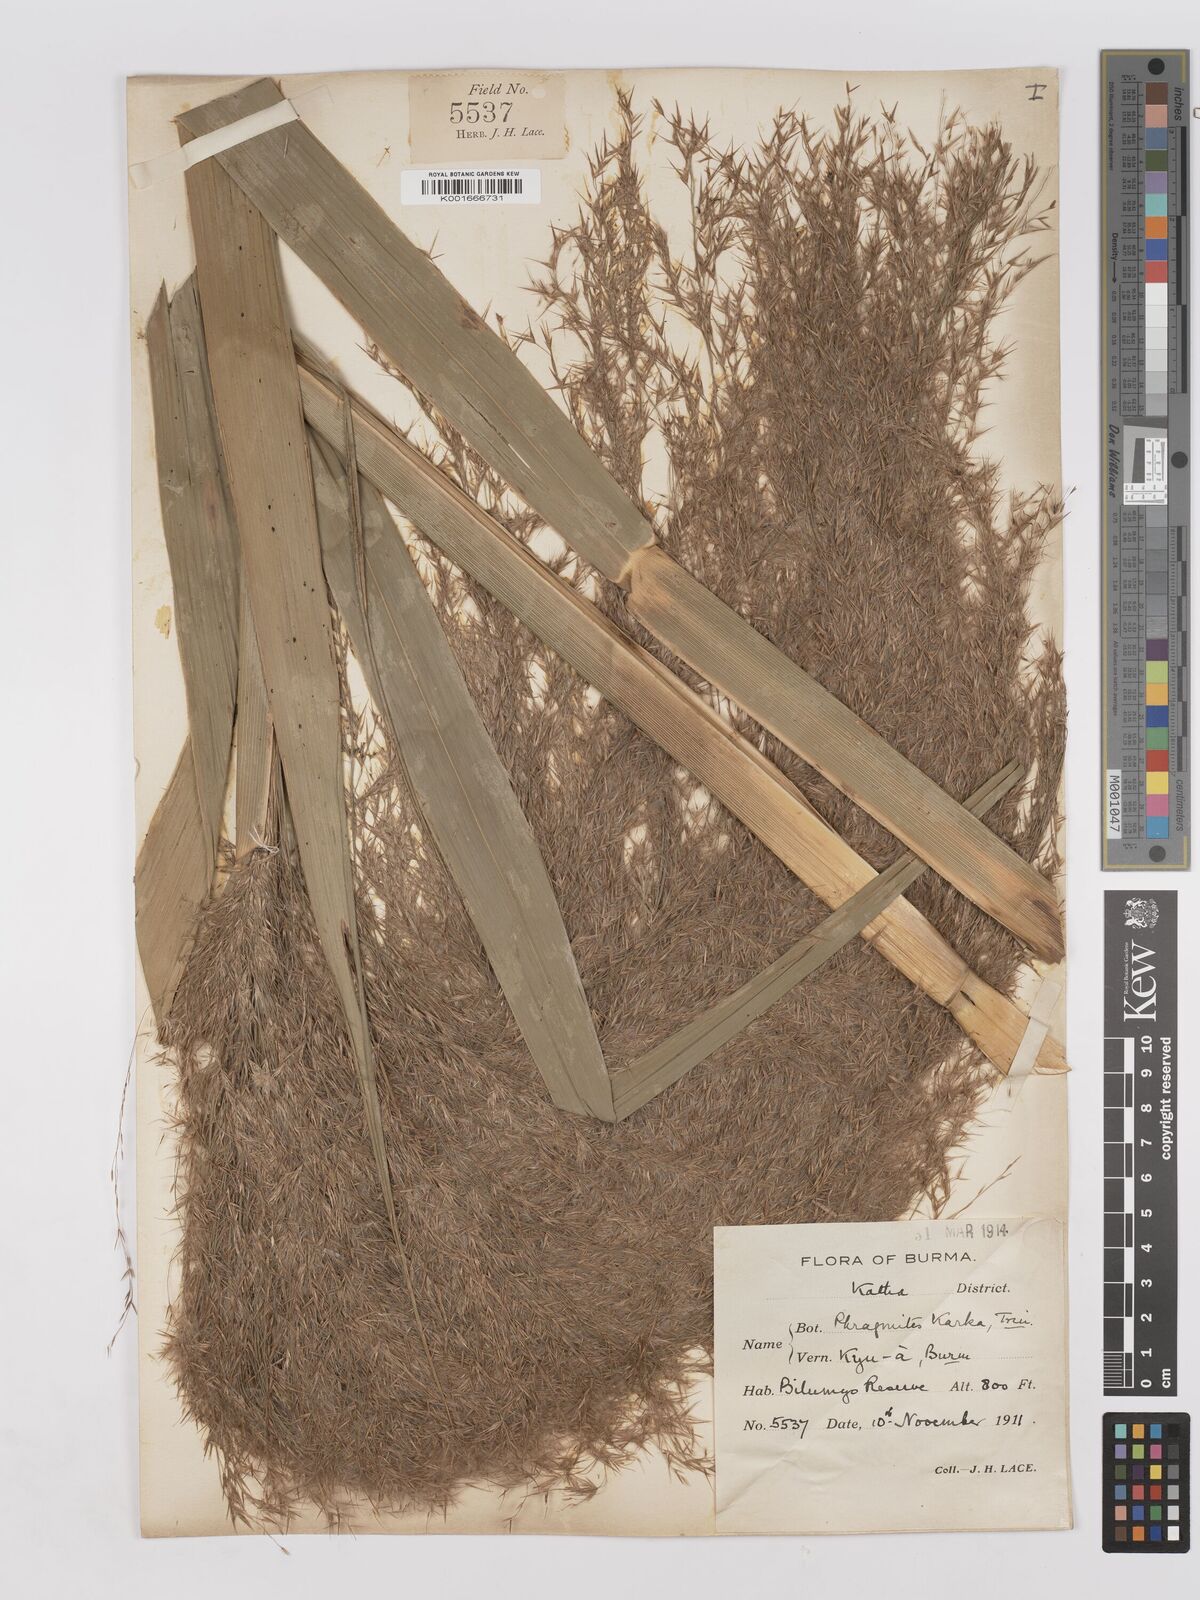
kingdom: Plantae
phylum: Tracheophyta
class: Liliopsida
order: Poales
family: Poaceae
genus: Phragmites
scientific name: Phragmites karka
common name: Tropical reed
